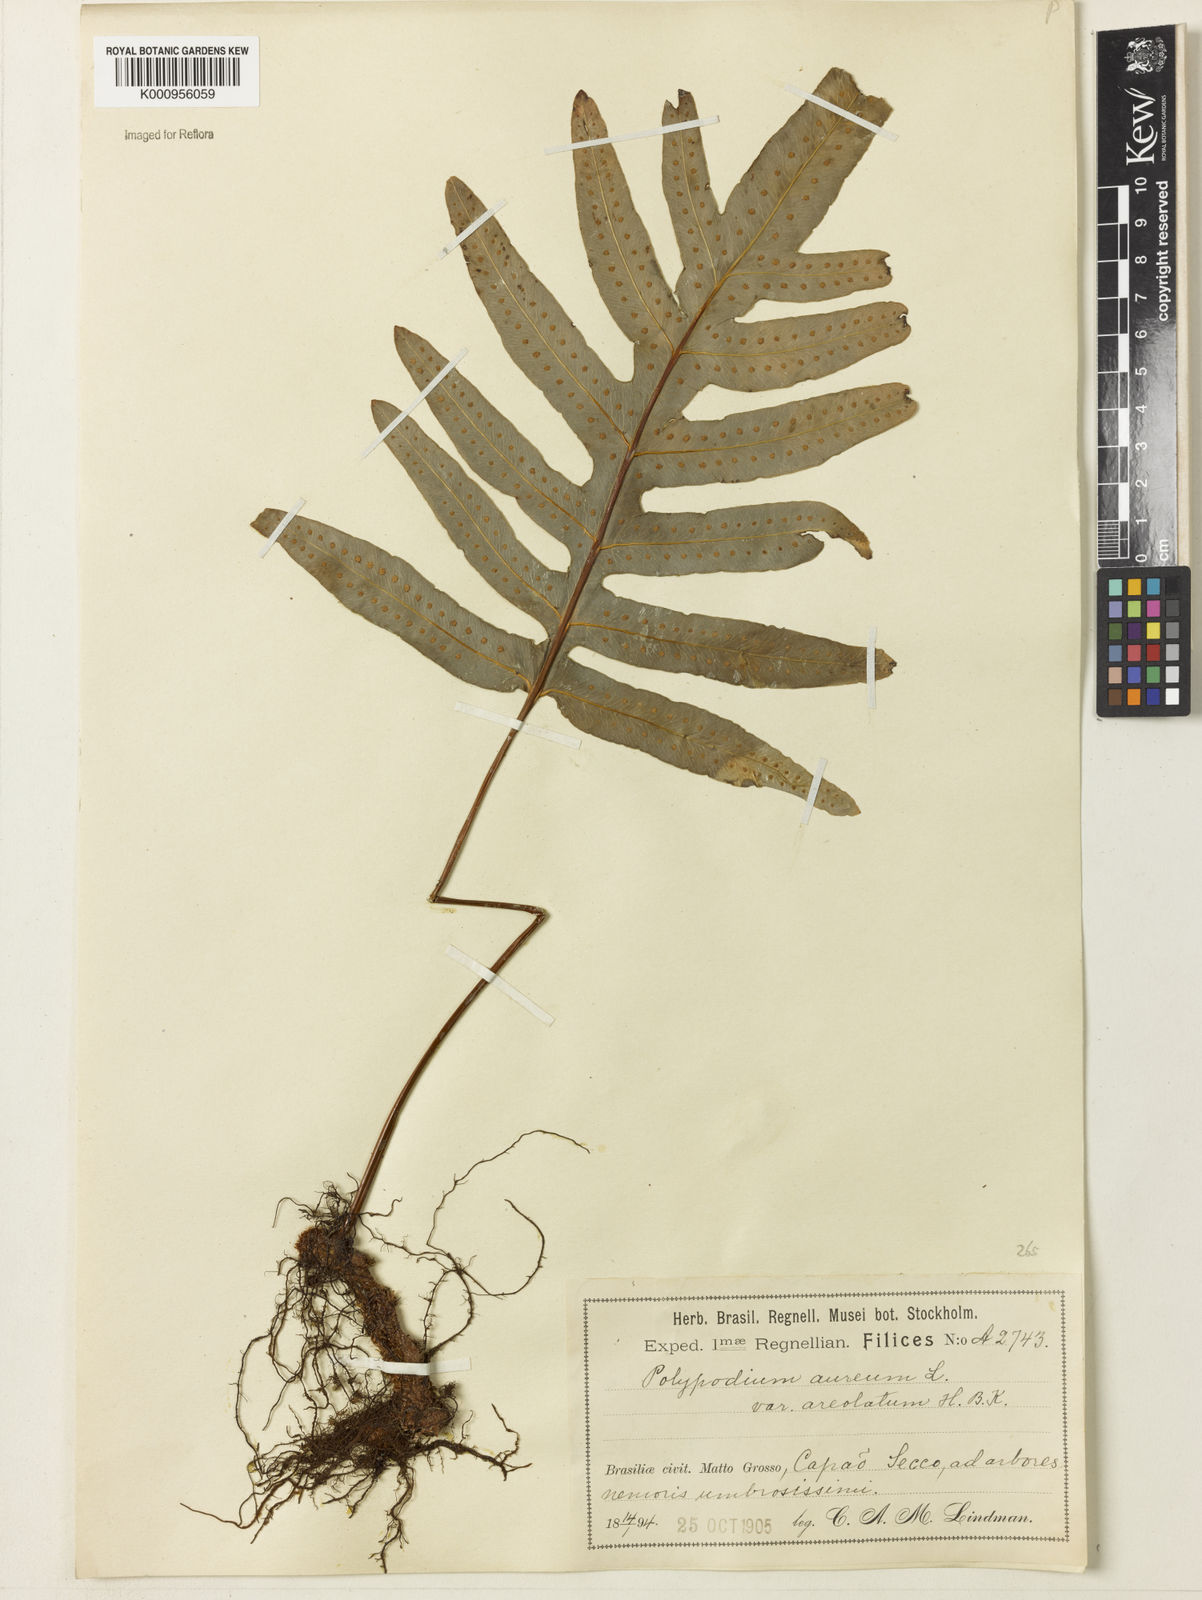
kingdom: Plantae
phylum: Tracheophyta
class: Polypodiopsida
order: Polypodiales
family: Polypodiaceae
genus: Phlebodium
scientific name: Phlebodium aureum
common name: Gold-foot fern
